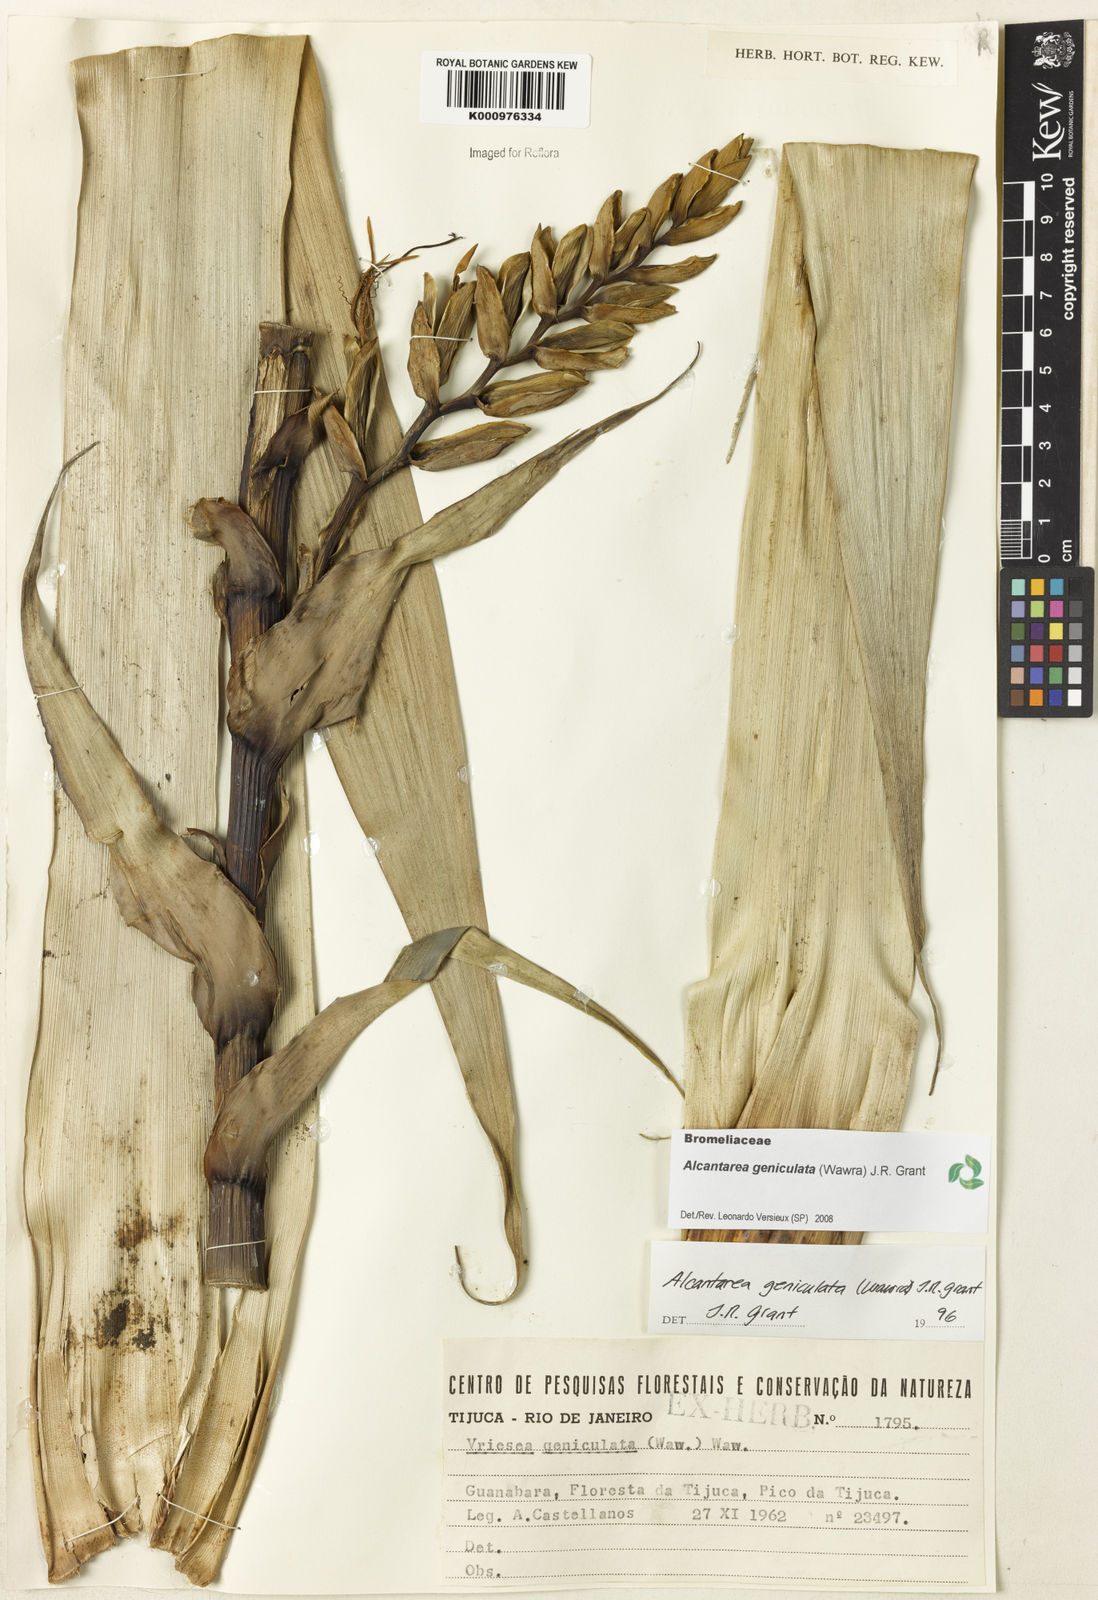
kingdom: Plantae
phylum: Tracheophyta
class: Liliopsida
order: Poales
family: Bromeliaceae
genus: Alcantarea
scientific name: Alcantarea geniculata
